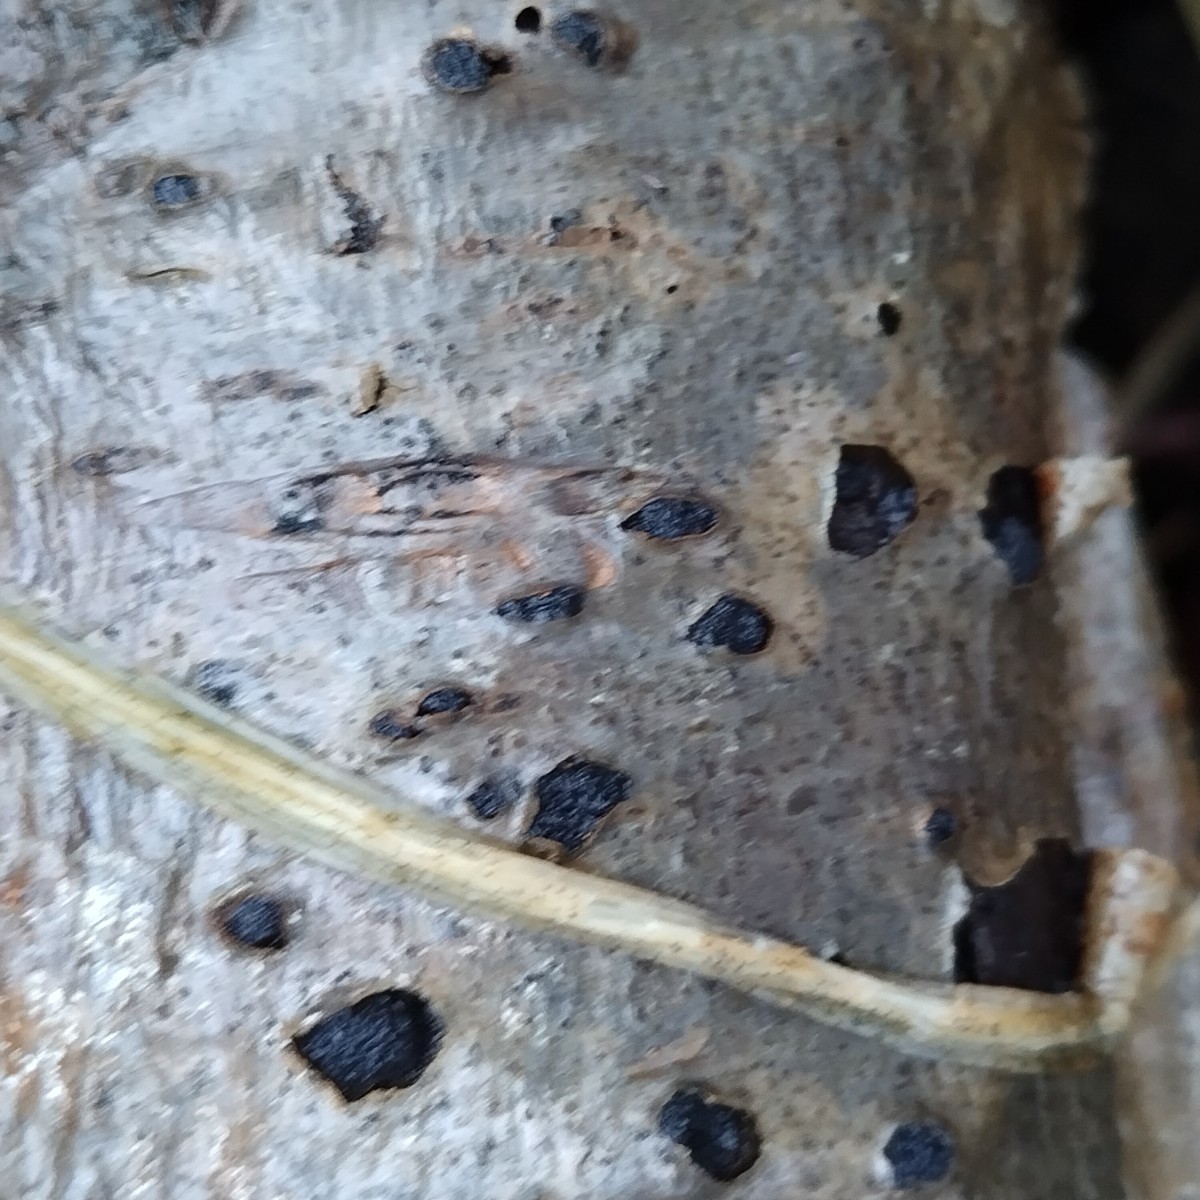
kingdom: Fungi
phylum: Ascomycota
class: Sordariomycetes
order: Xylariales
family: Diatrypaceae
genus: Eutypella
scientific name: Eutypella sorbi
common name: rønne-kulskorpe
